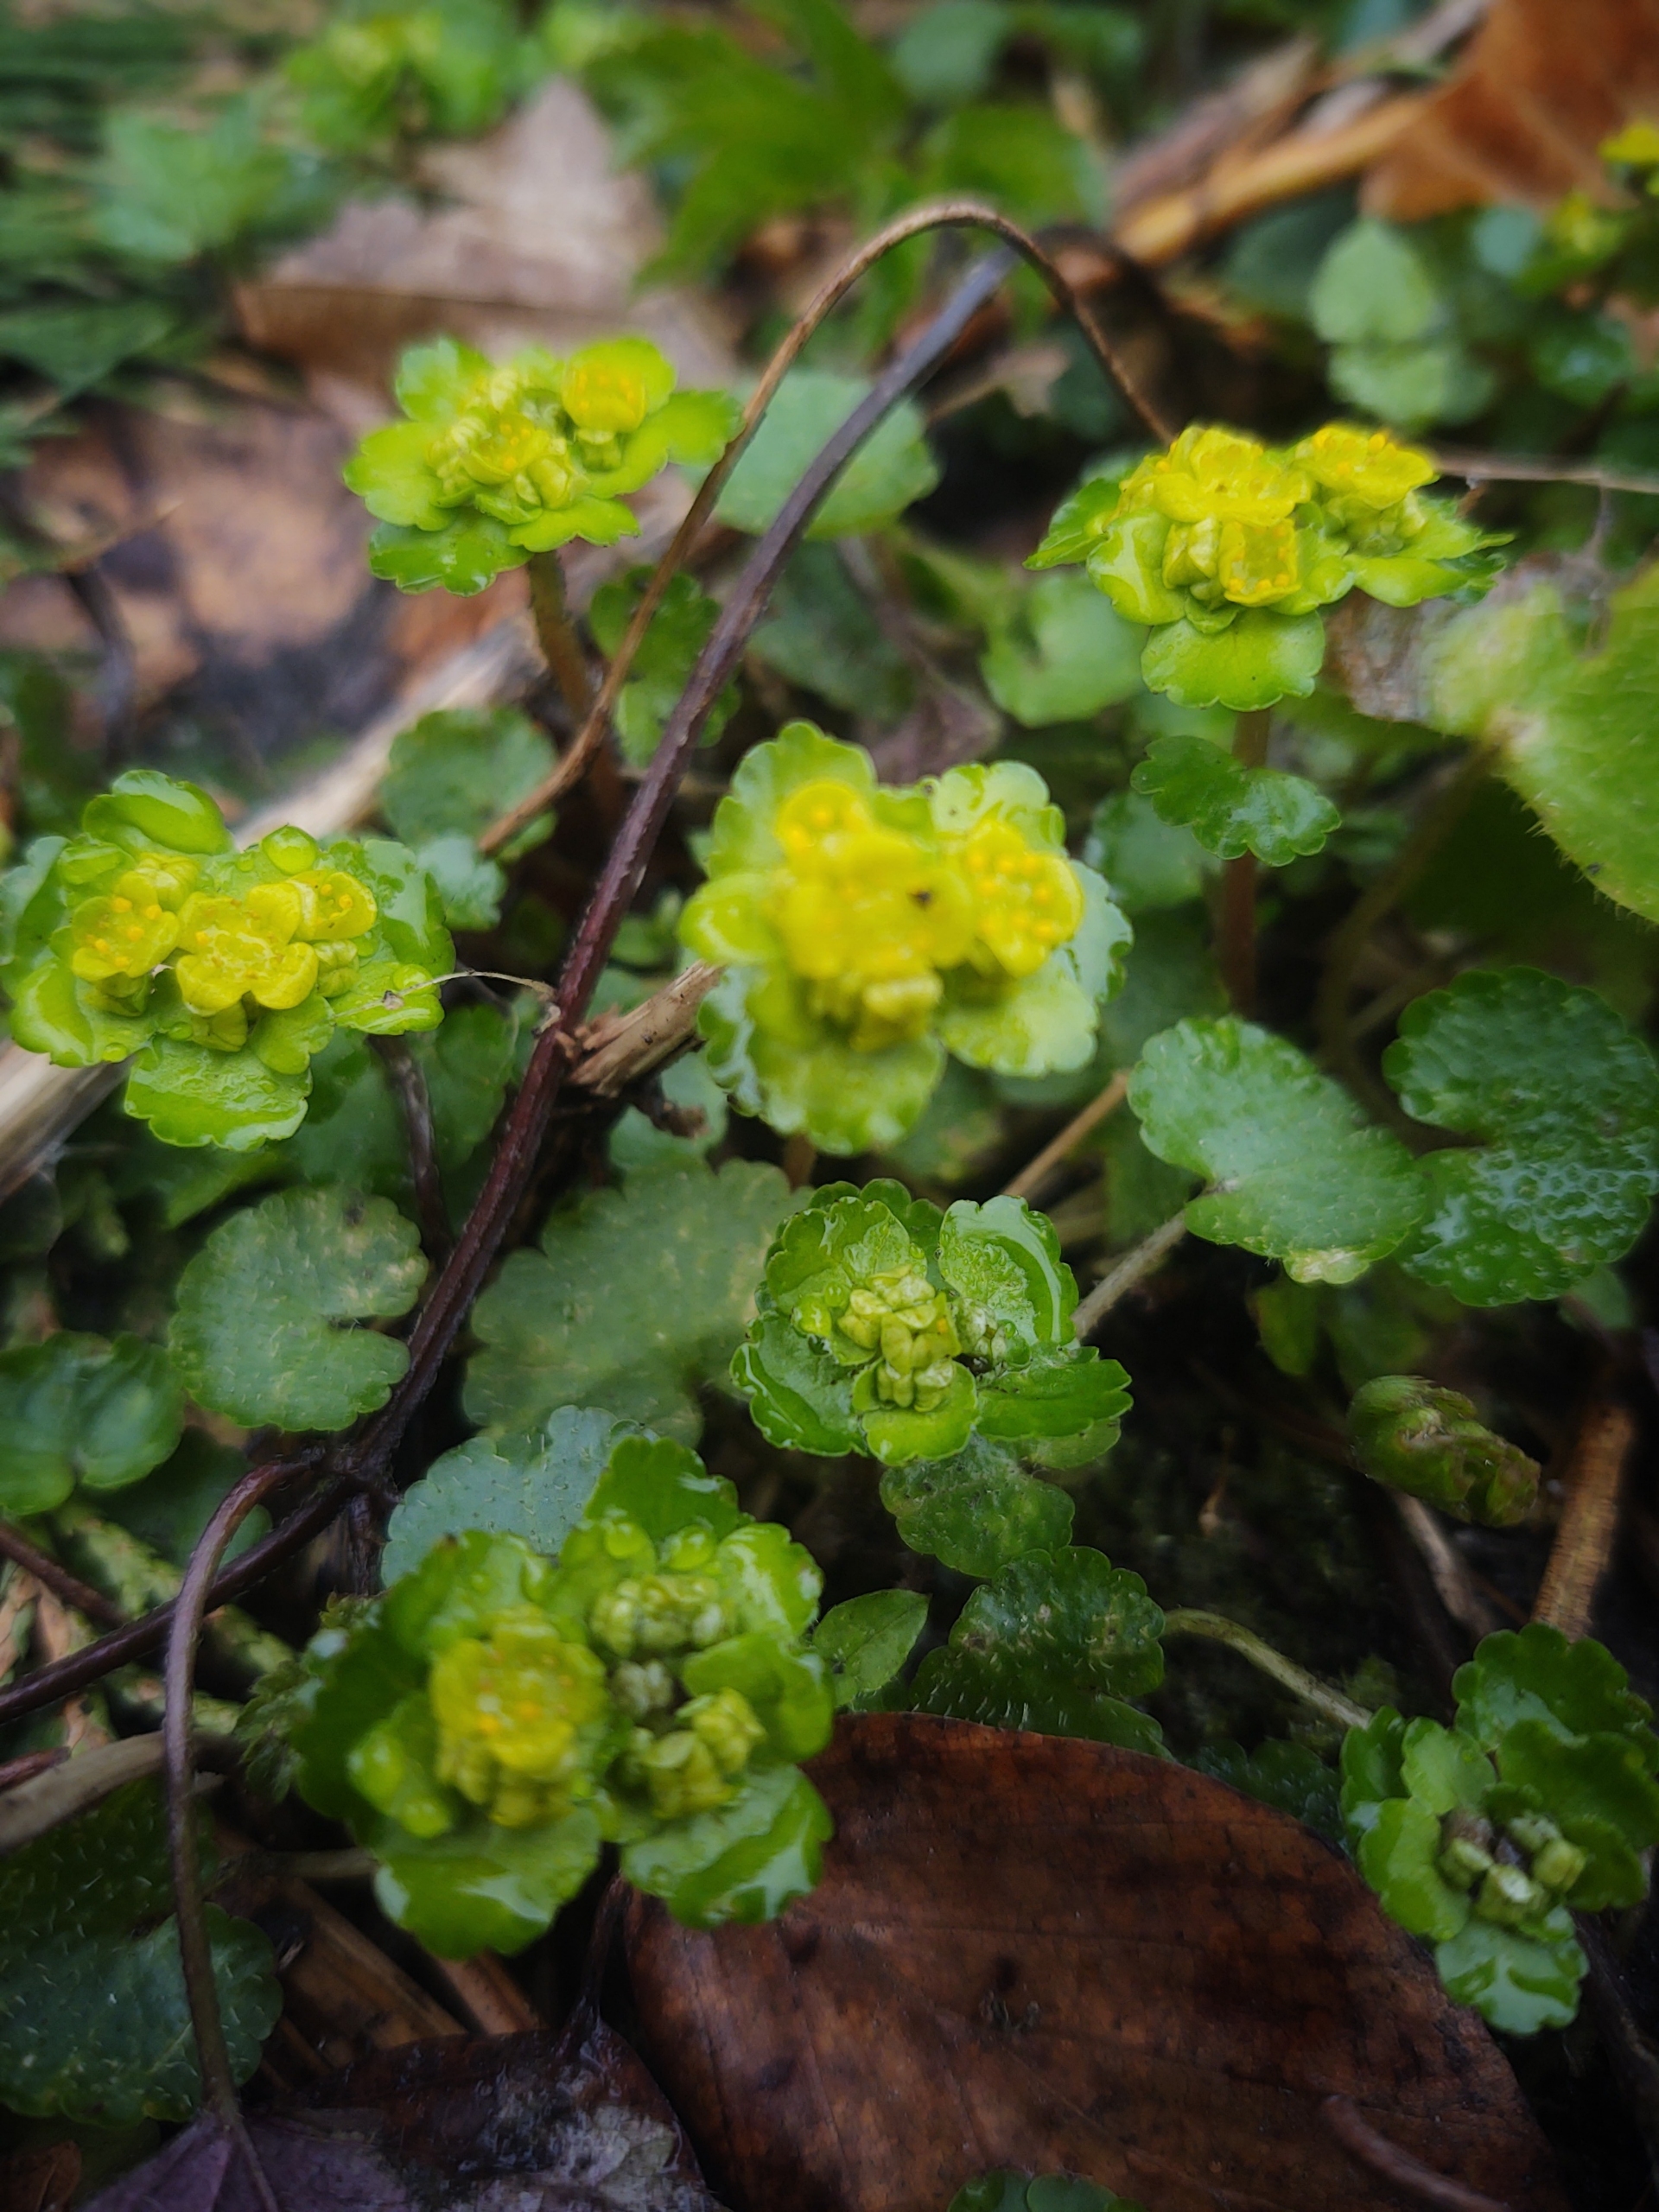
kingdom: Plantae
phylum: Tracheophyta
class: Magnoliopsida
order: Saxifragales
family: Saxifragaceae
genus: Chrysosplenium
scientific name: Chrysosplenium alternifolium
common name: Almindelig milturt
